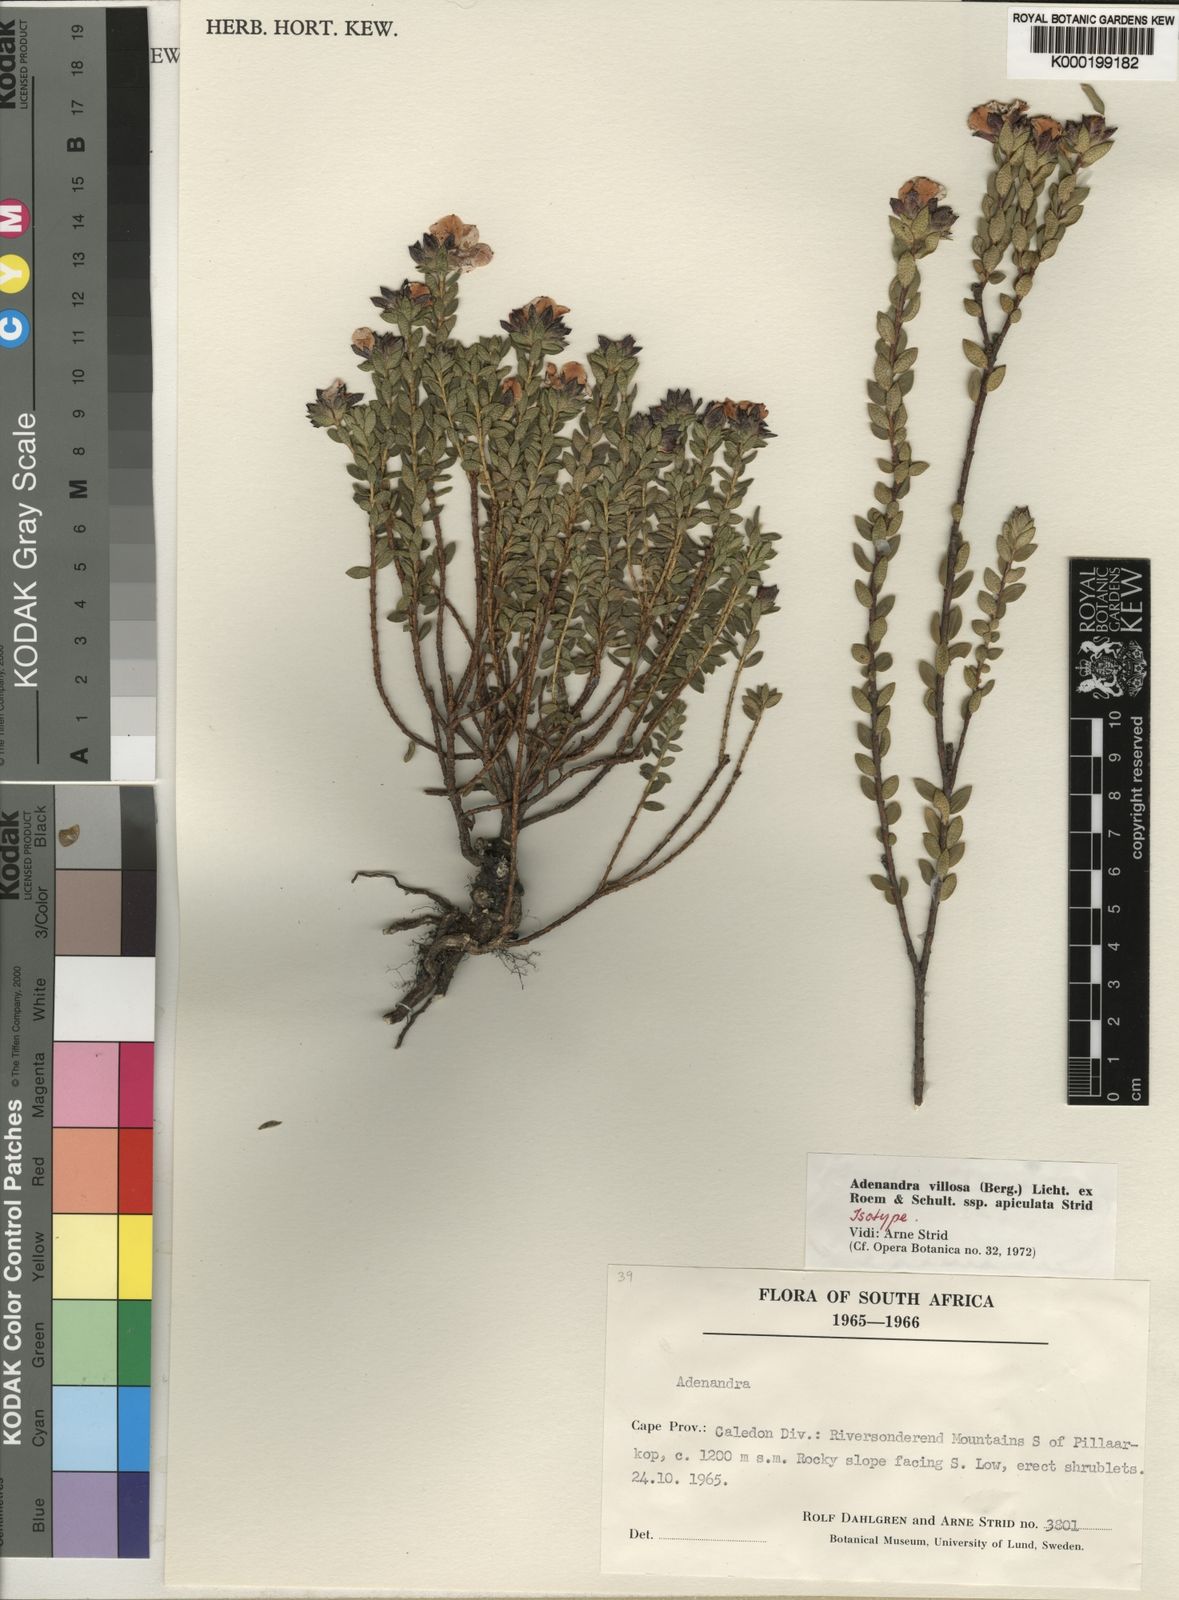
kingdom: Plantae
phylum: Tracheophyta
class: Magnoliopsida
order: Sapindales
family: Rutaceae
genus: Adenandra
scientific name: Adenandra villosa
